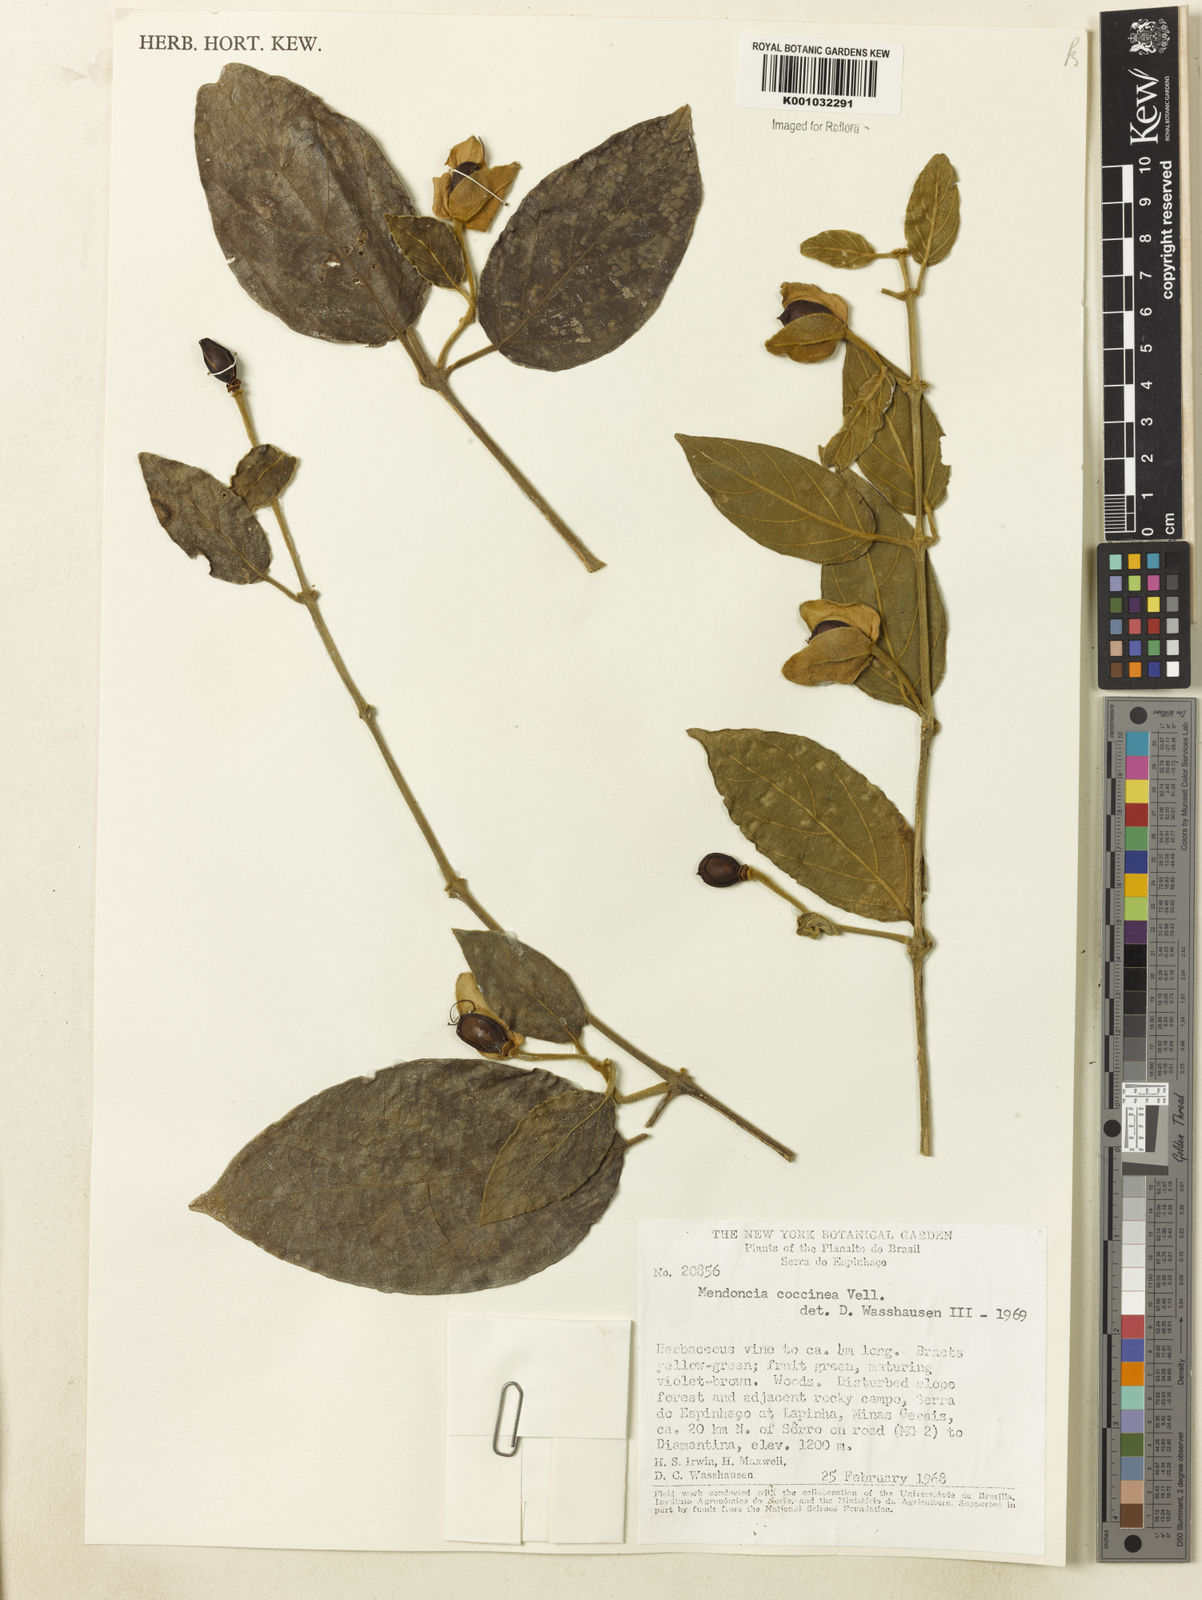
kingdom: Plantae
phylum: Tracheophyta
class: Magnoliopsida
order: Lamiales
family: Acanthaceae
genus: Mendoncia
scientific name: Mendoncia coccinea
